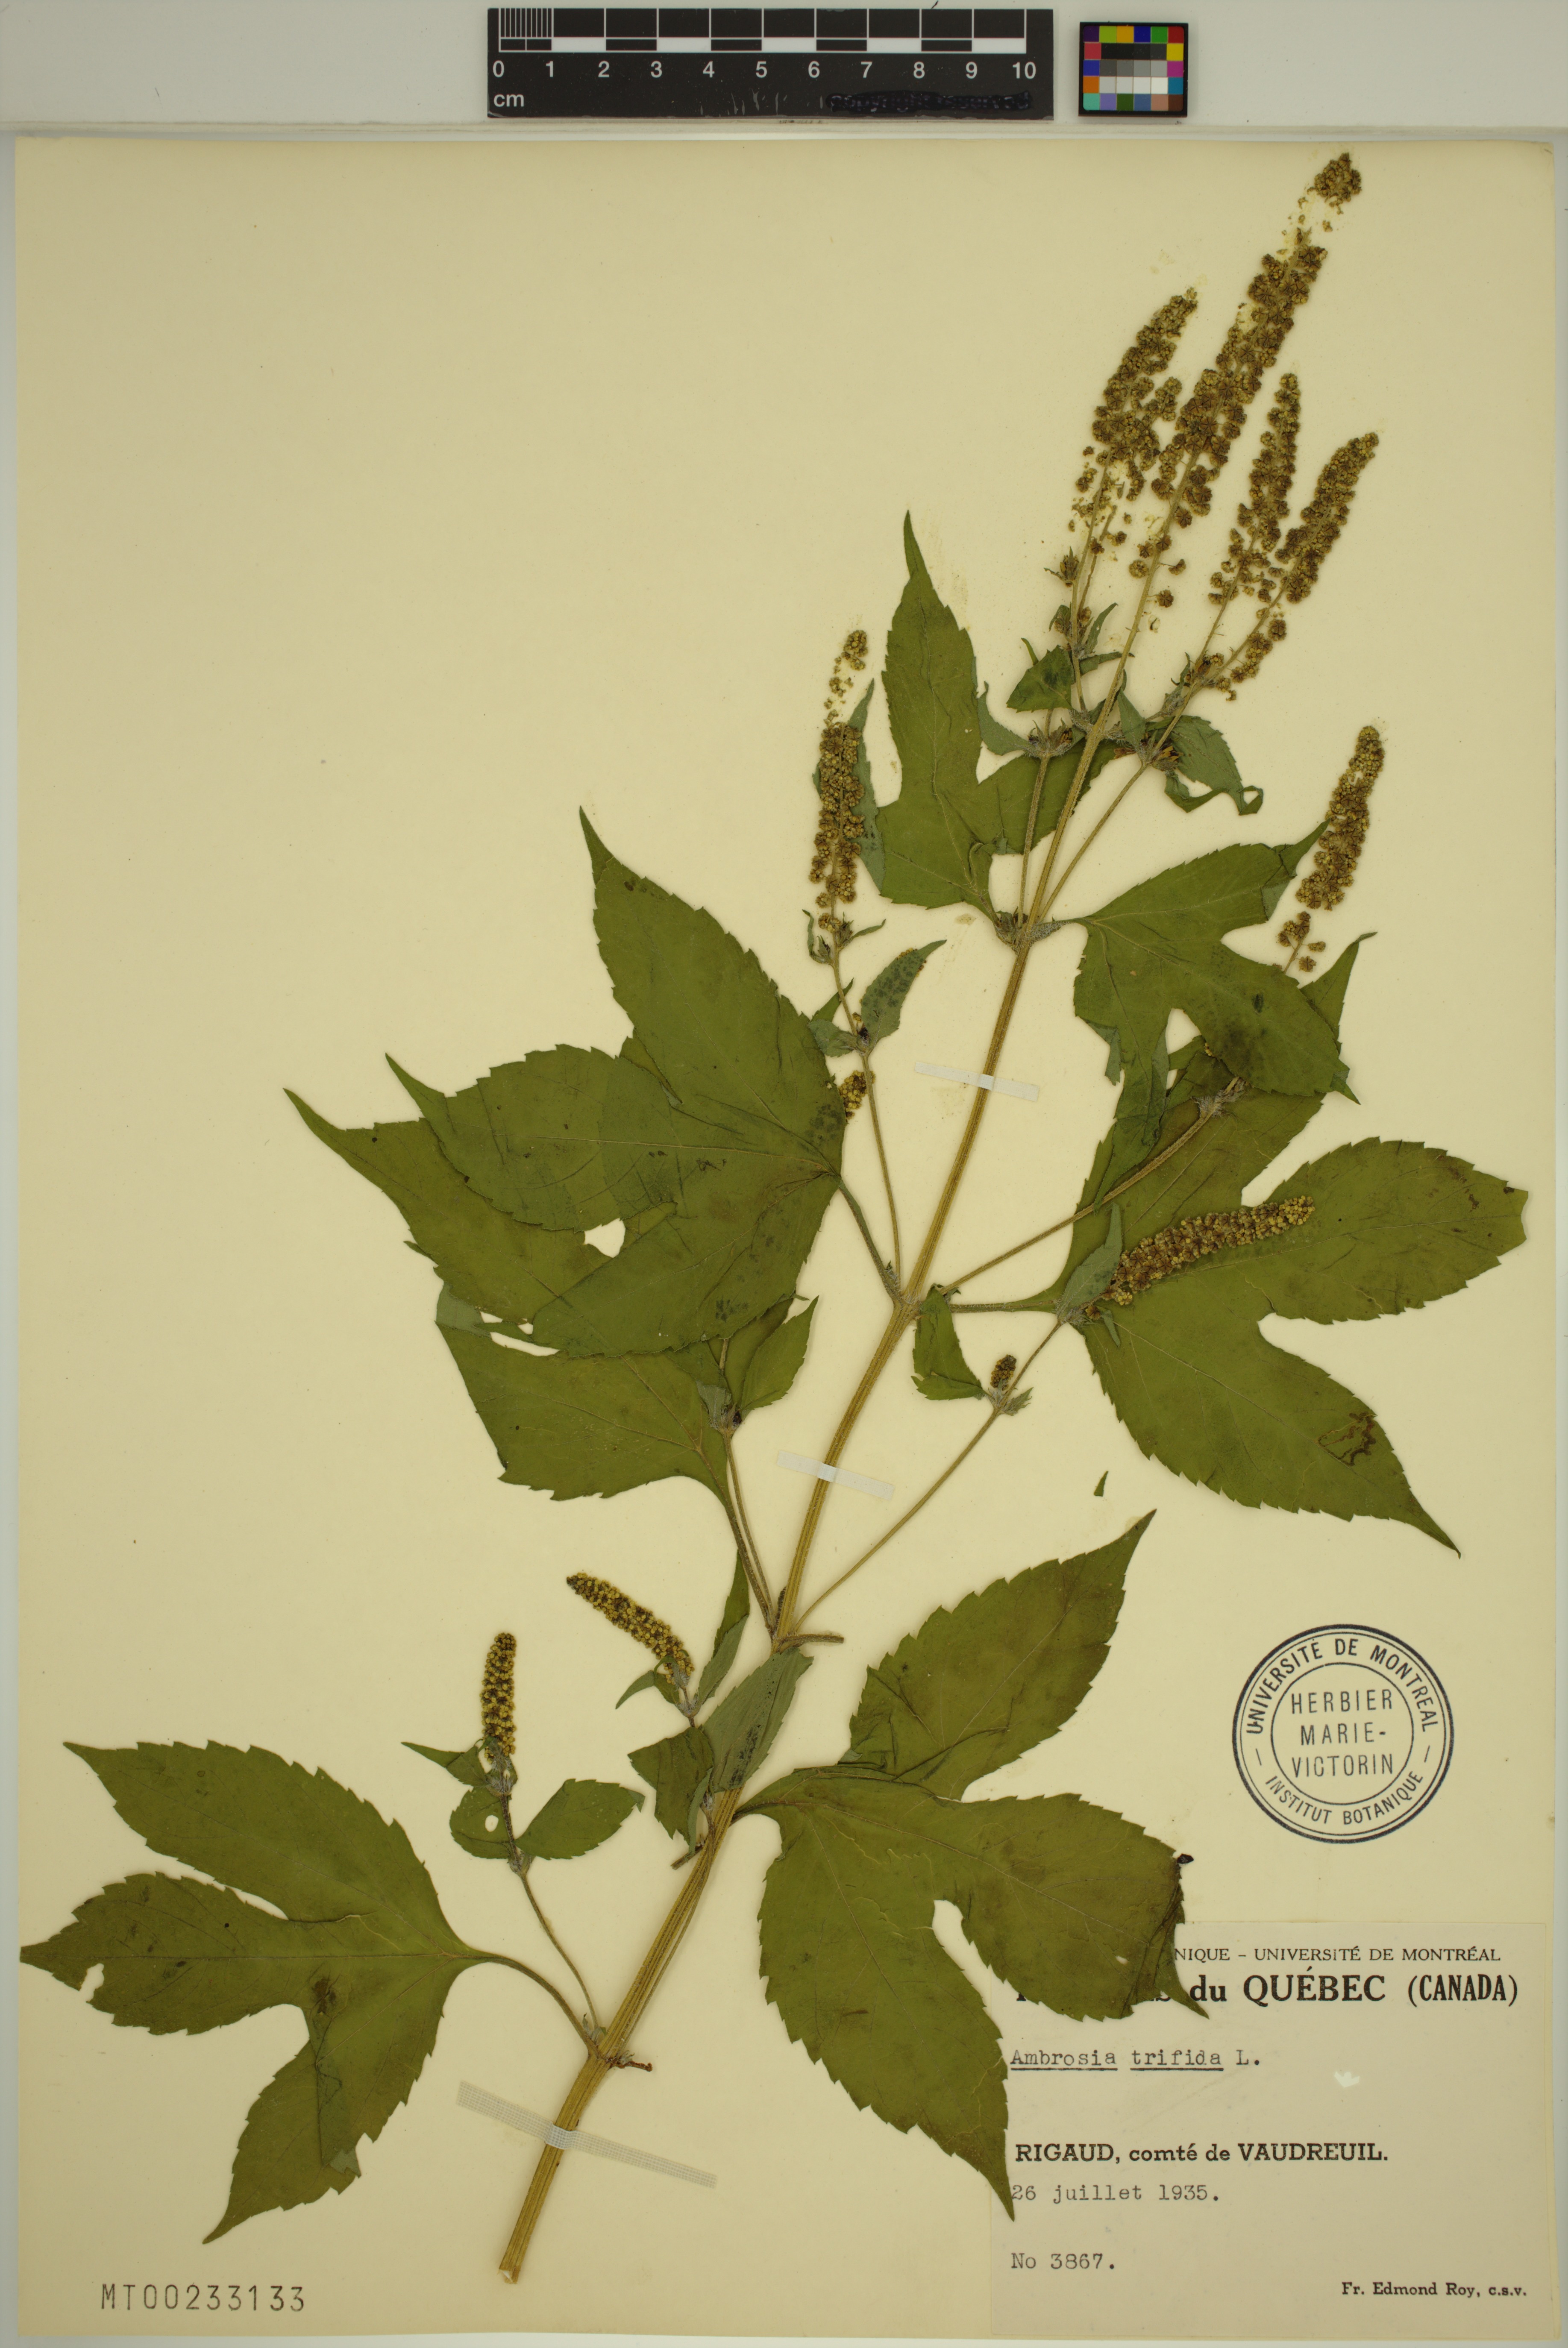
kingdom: Plantae
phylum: Tracheophyta
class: Magnoliopsida
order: Asterales
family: Asteraceae
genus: Ambrosia
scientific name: Ambrosia trifida
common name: Giant ragweed
